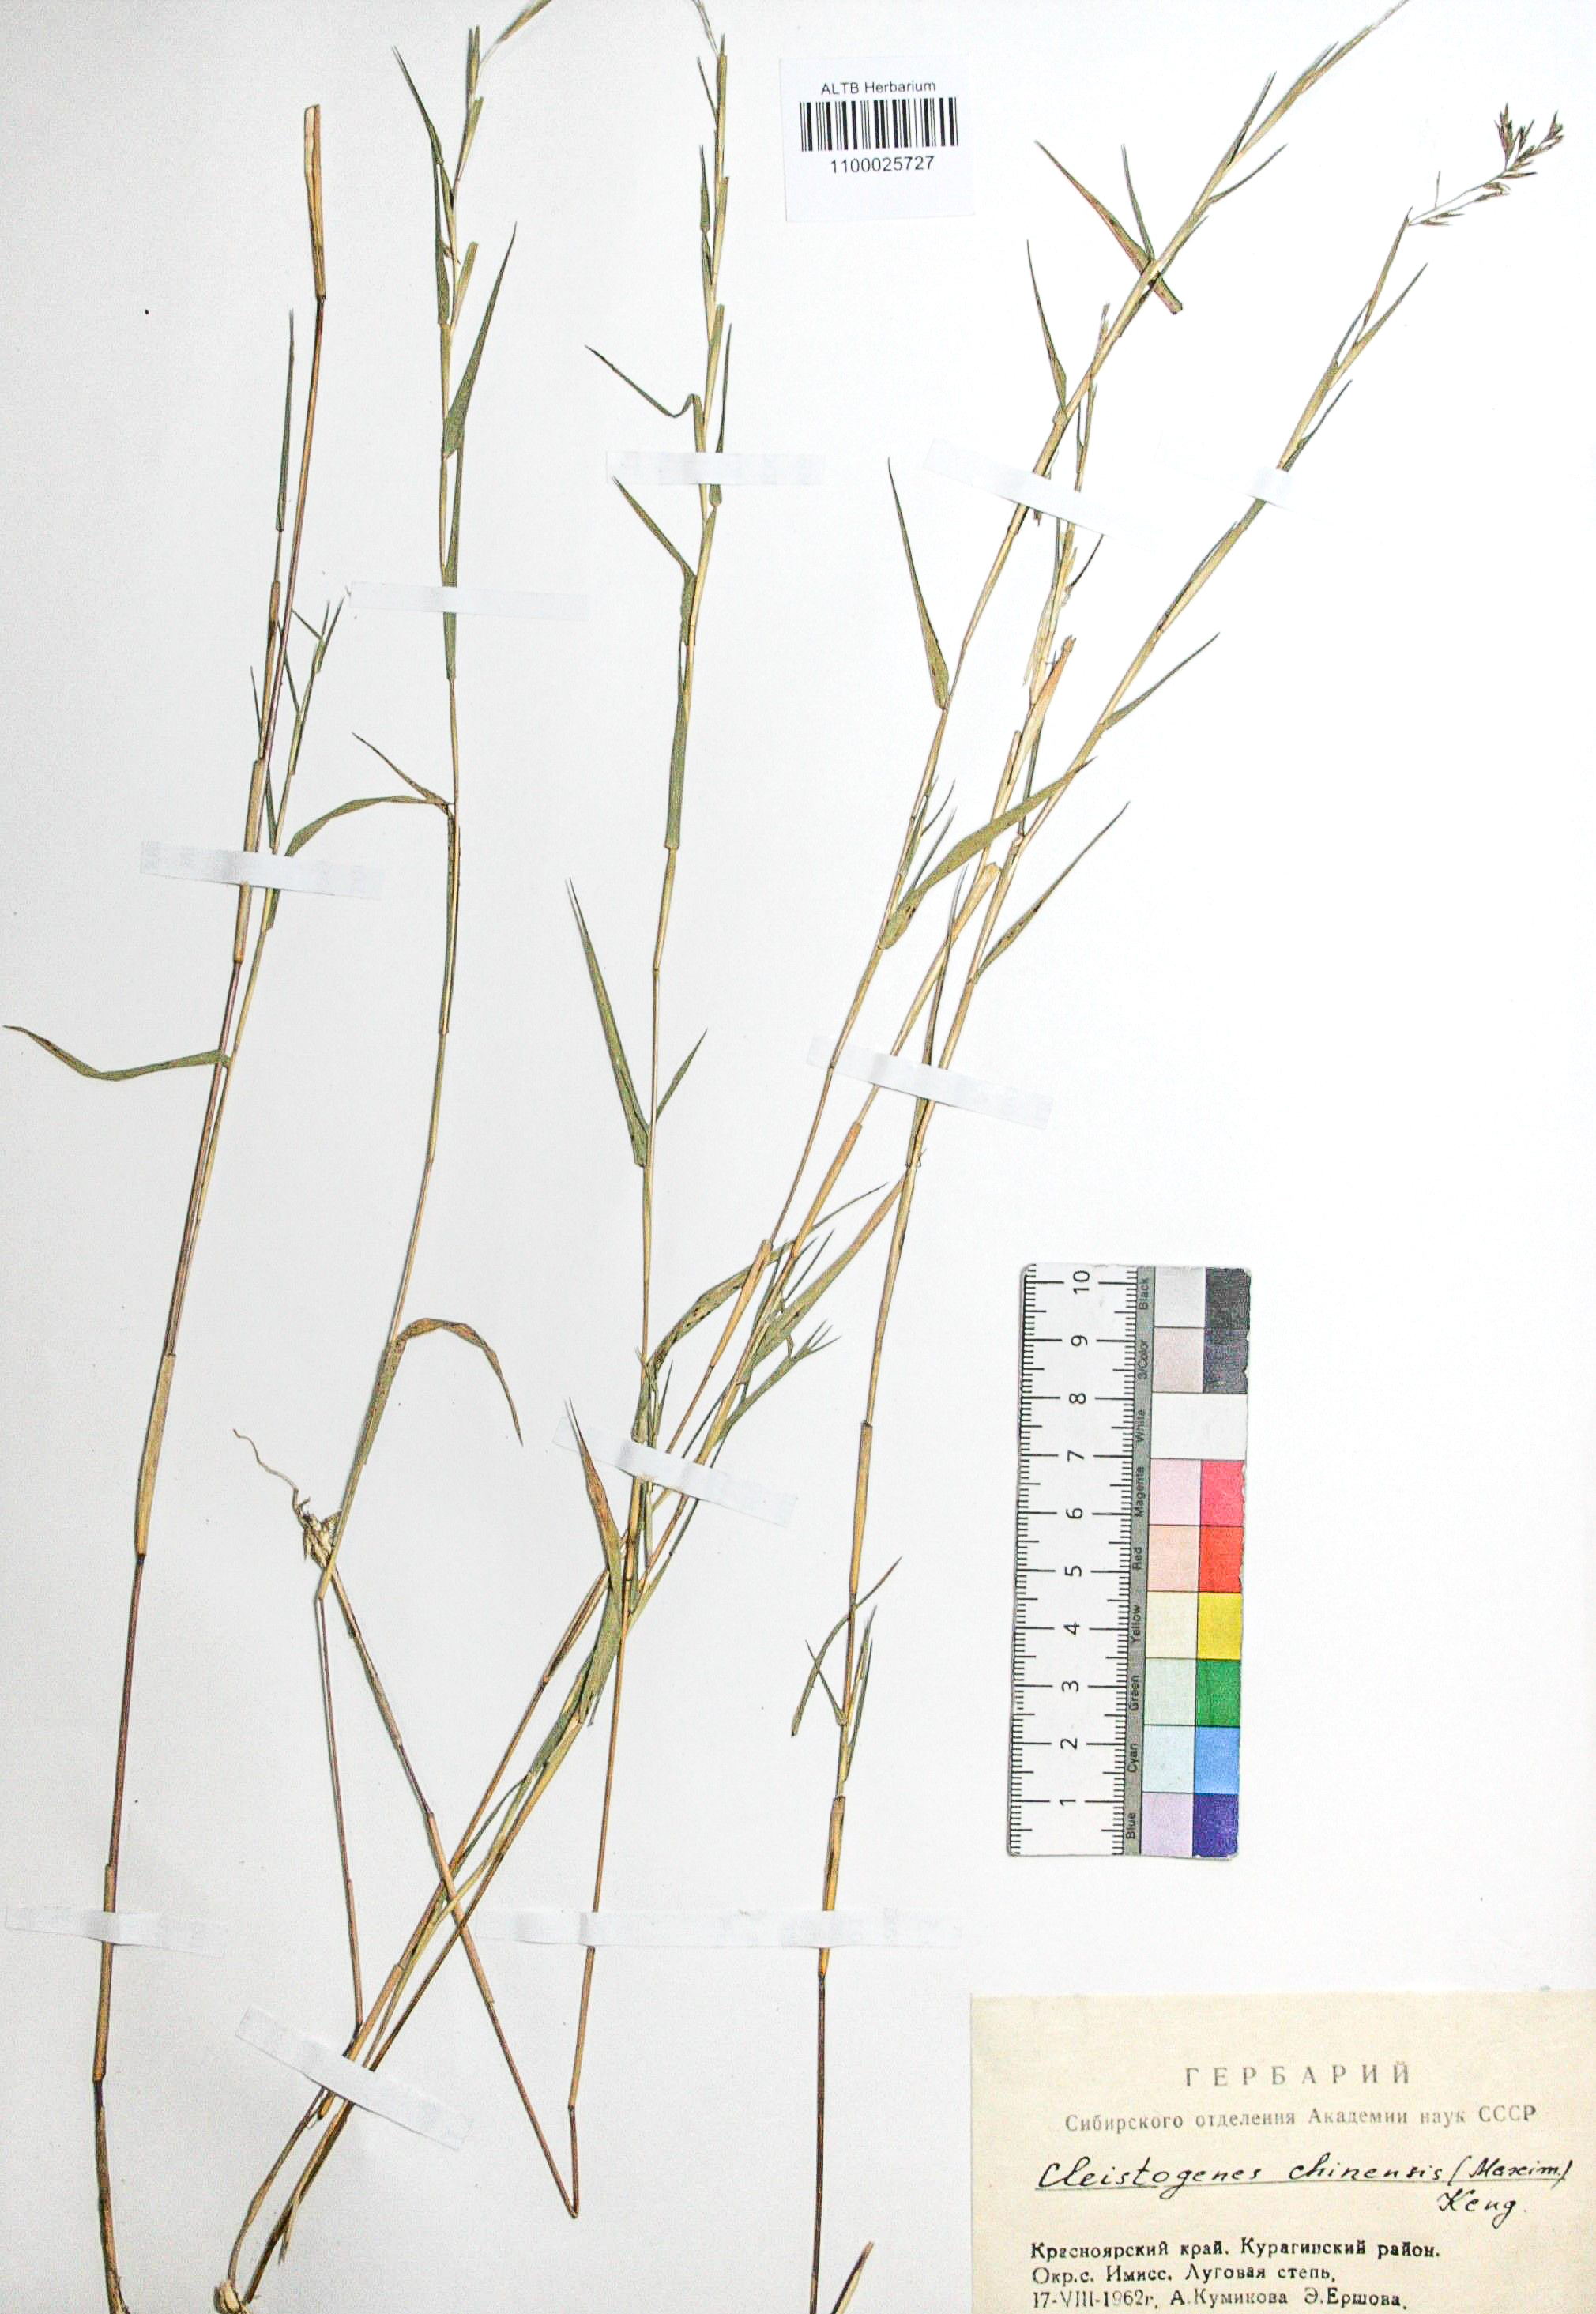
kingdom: Plantae
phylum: Tracheophyta
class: Liliopsida
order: Poales
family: Poaceae
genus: Cleistogenes
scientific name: Cleistogenes hackelii
